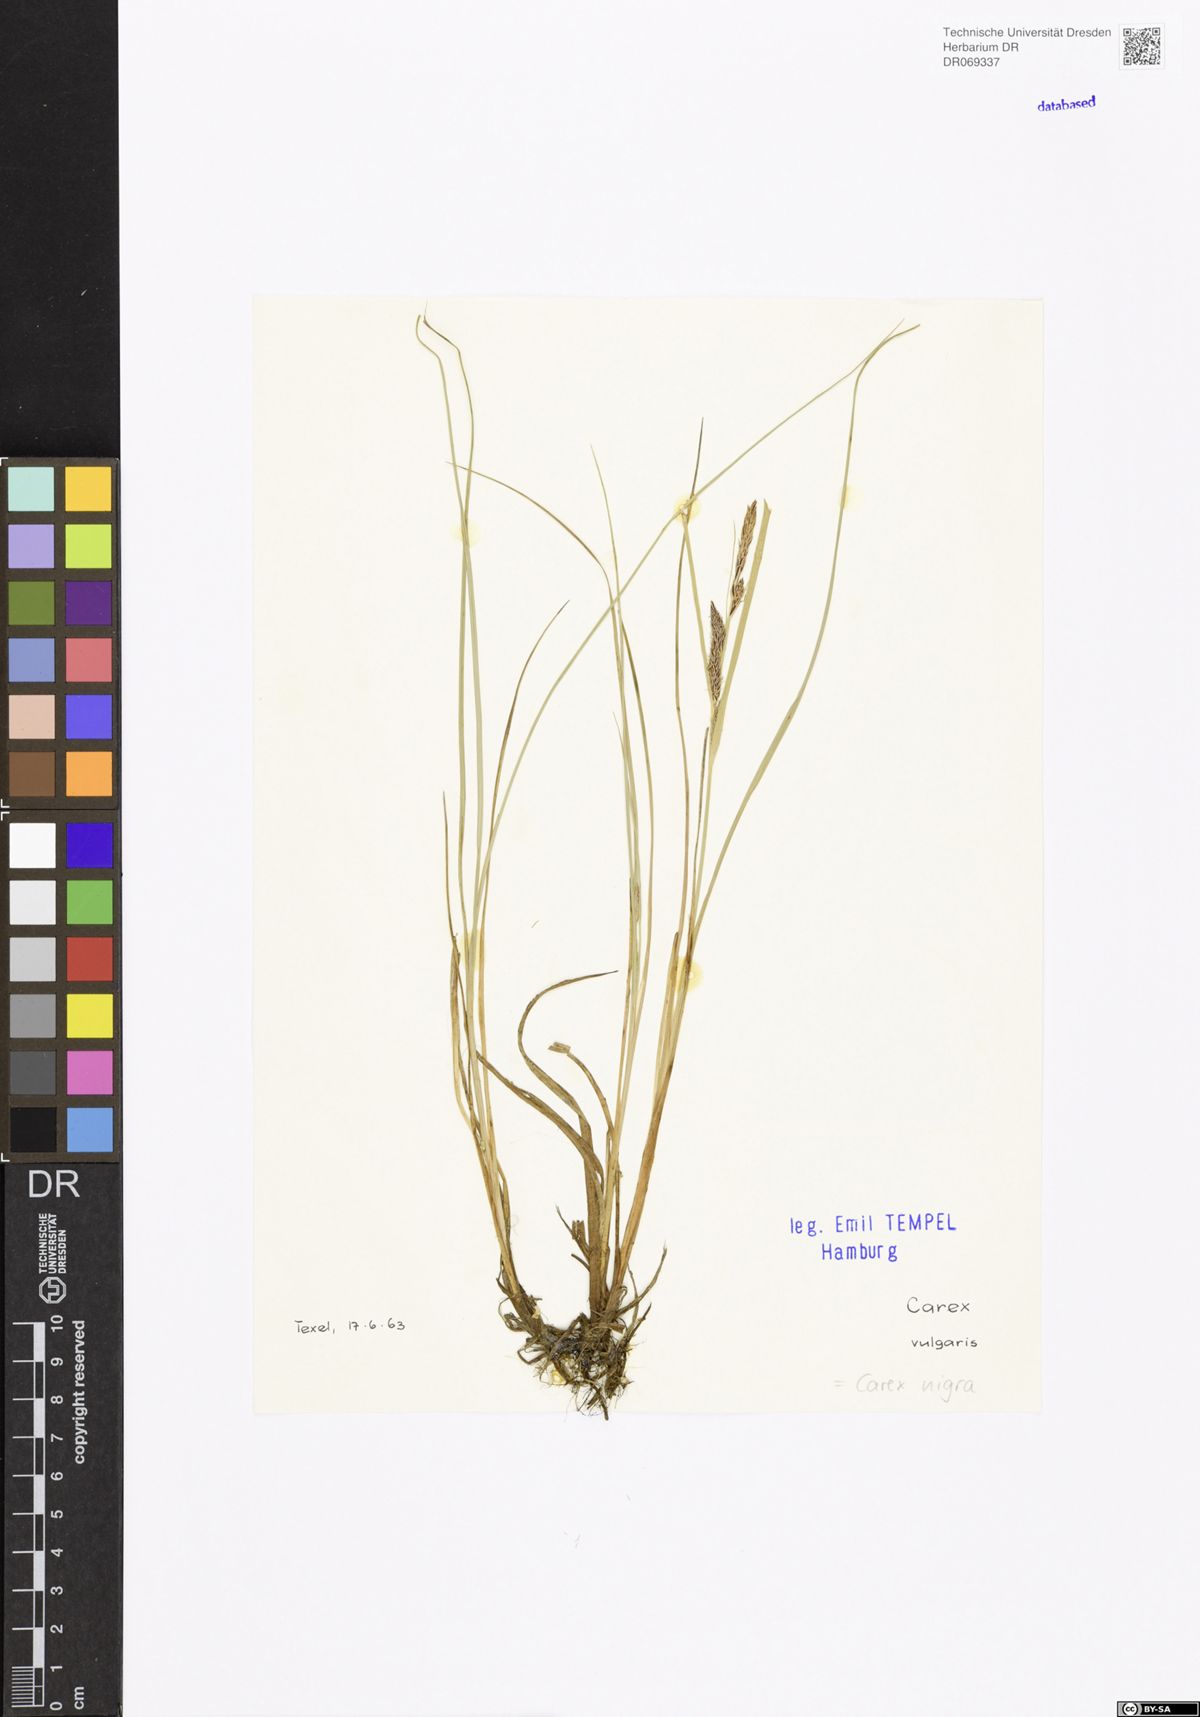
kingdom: Plantae
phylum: Tracheophyta
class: Liliopsida
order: Poales
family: Cyperaceae
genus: Carex
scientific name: Carex nigra
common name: Common sedge
